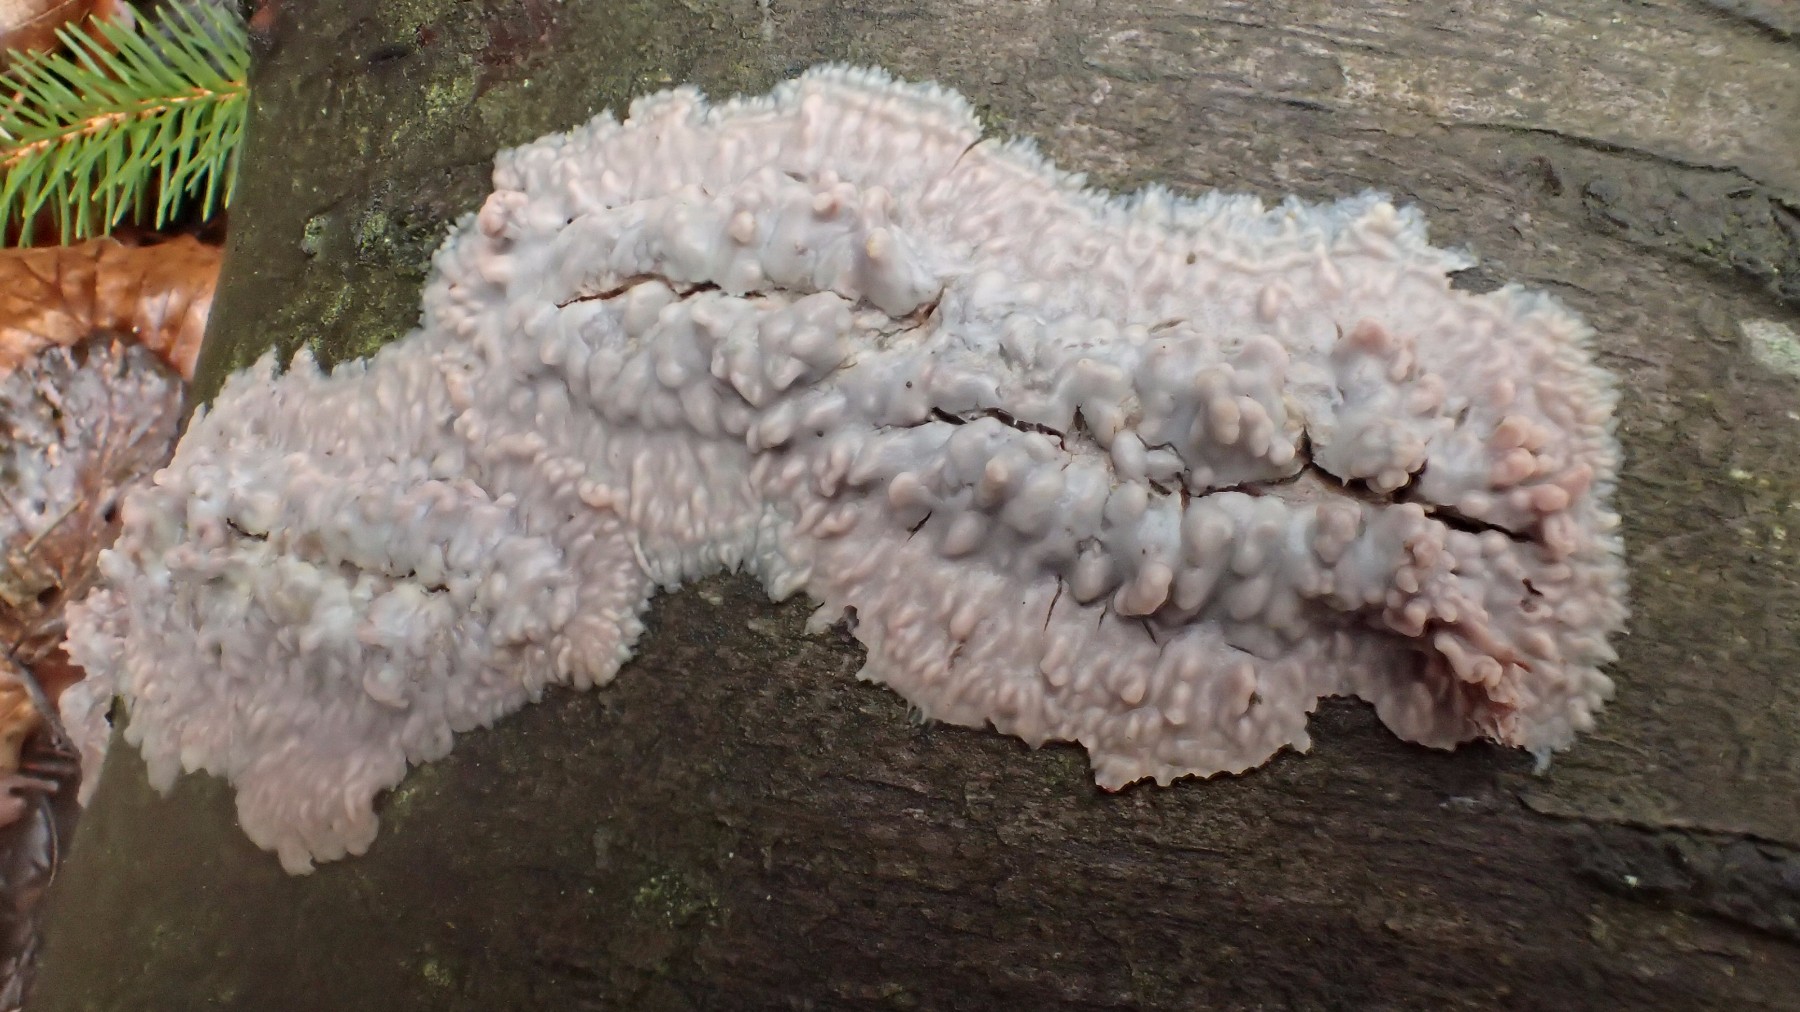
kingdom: Fungi
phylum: Basidiomycota
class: Agaricomycetes
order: Polyporales
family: Meruliaceae
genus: Phlebia
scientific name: Phlebia radiata
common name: stråle-åresvamp
